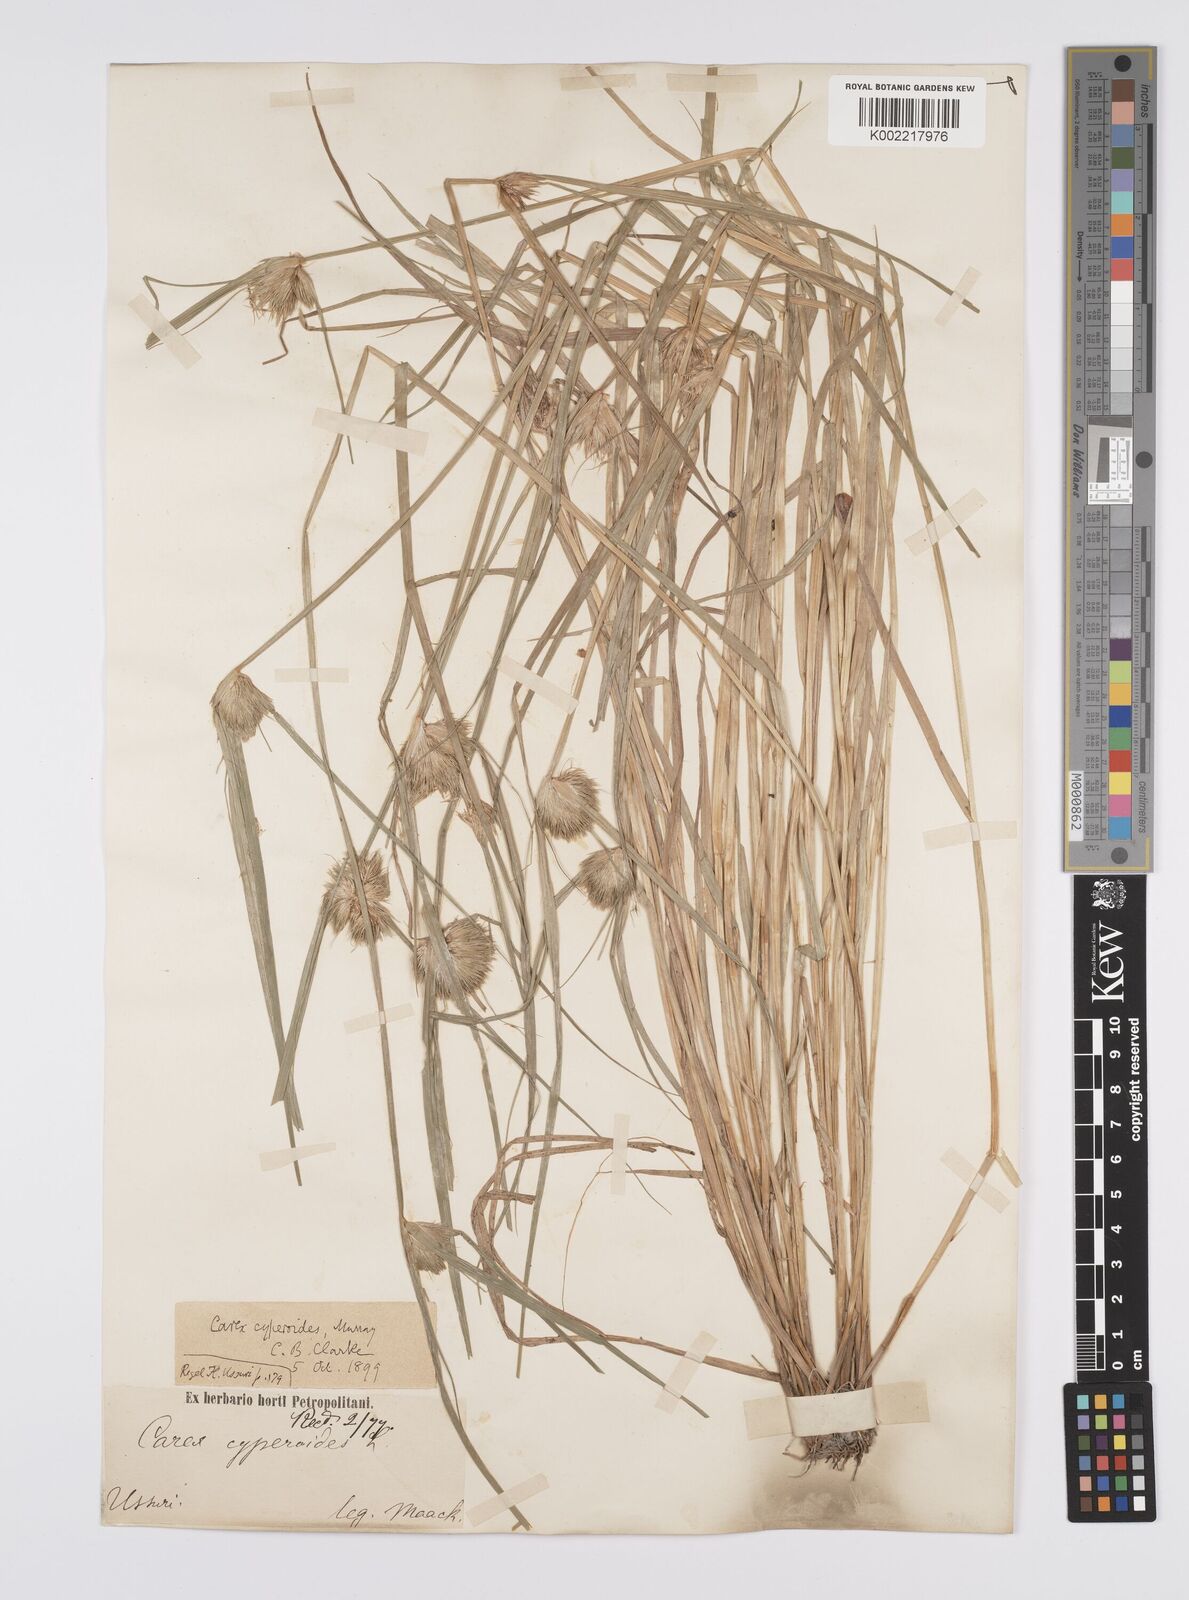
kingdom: Plantae
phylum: Tracheophyta
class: Liliopsida
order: Poales
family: Cyperaceae
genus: Carex
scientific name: Carex bohemica
